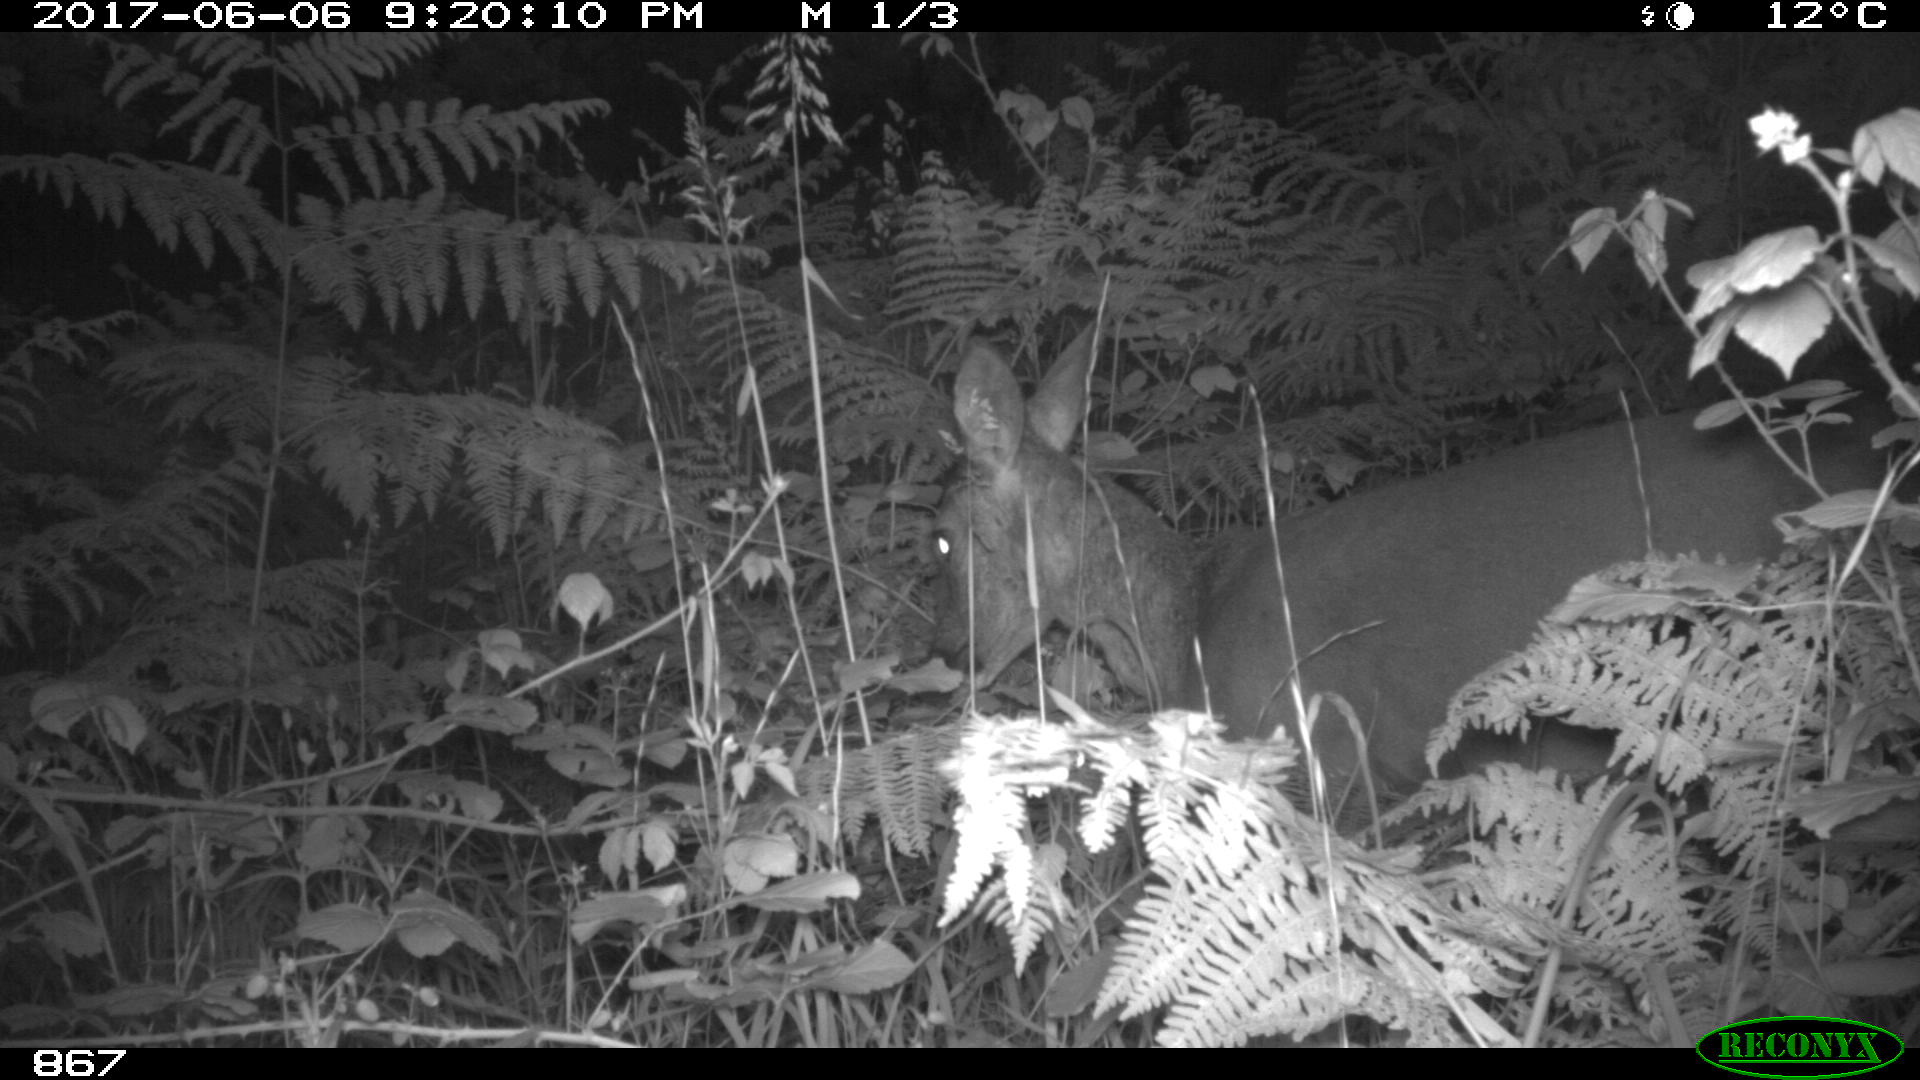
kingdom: Animalia
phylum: Chordata
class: Mammalia
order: Artiodactyla
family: Cervidae
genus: Capreolus
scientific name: Capreolus capreolus
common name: Western roe deer
